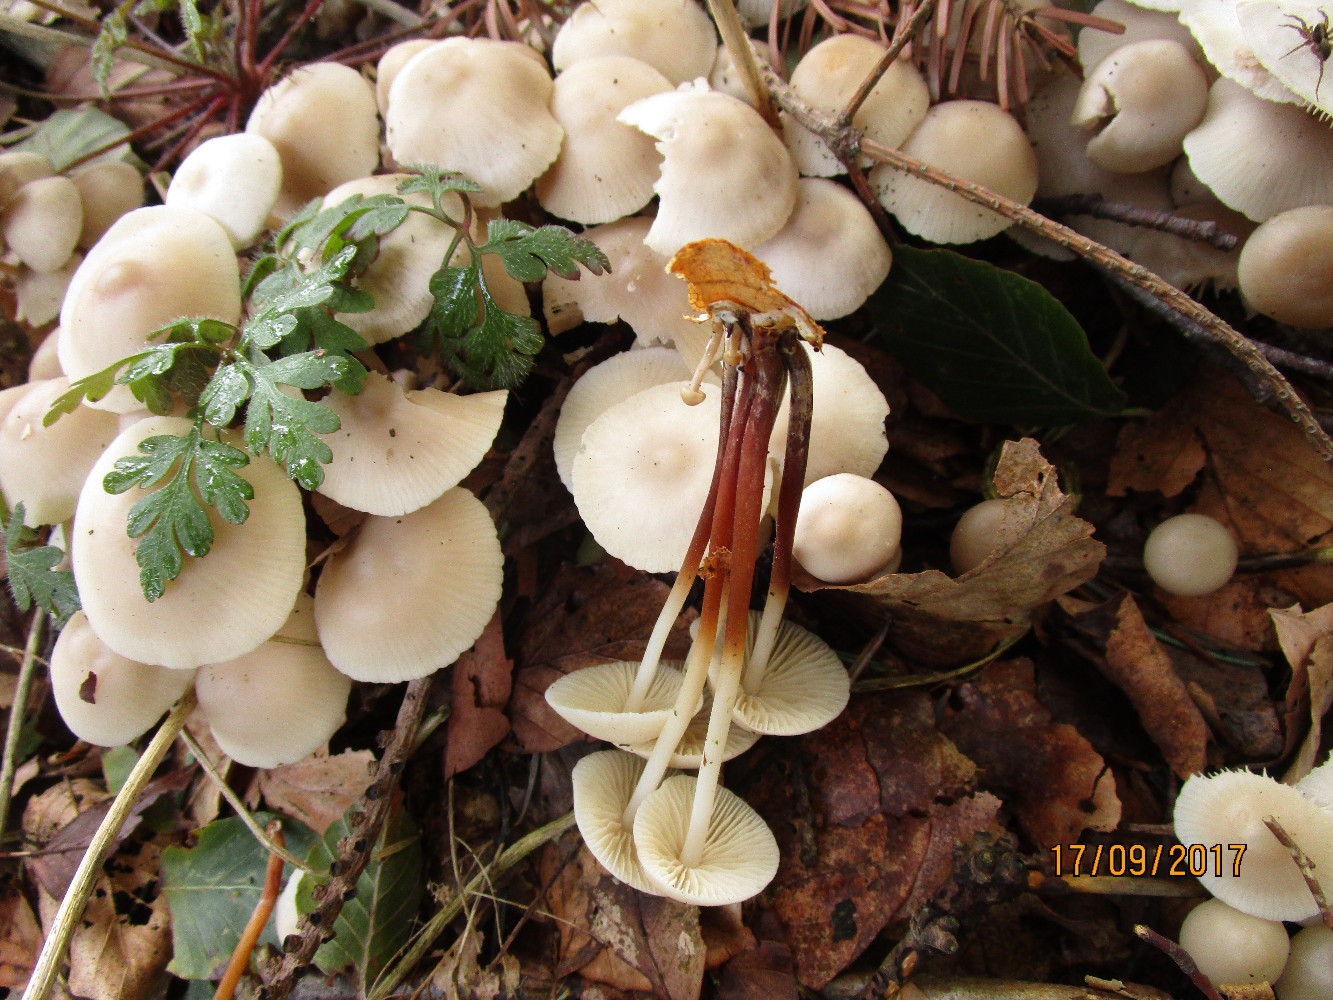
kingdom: Fungi
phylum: Basidiomycota
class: Agaricomycetes
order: Agaricales
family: Marasmiaceae
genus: Marasmius
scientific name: Marasmius wynneae
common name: hvælvet bruskhat
